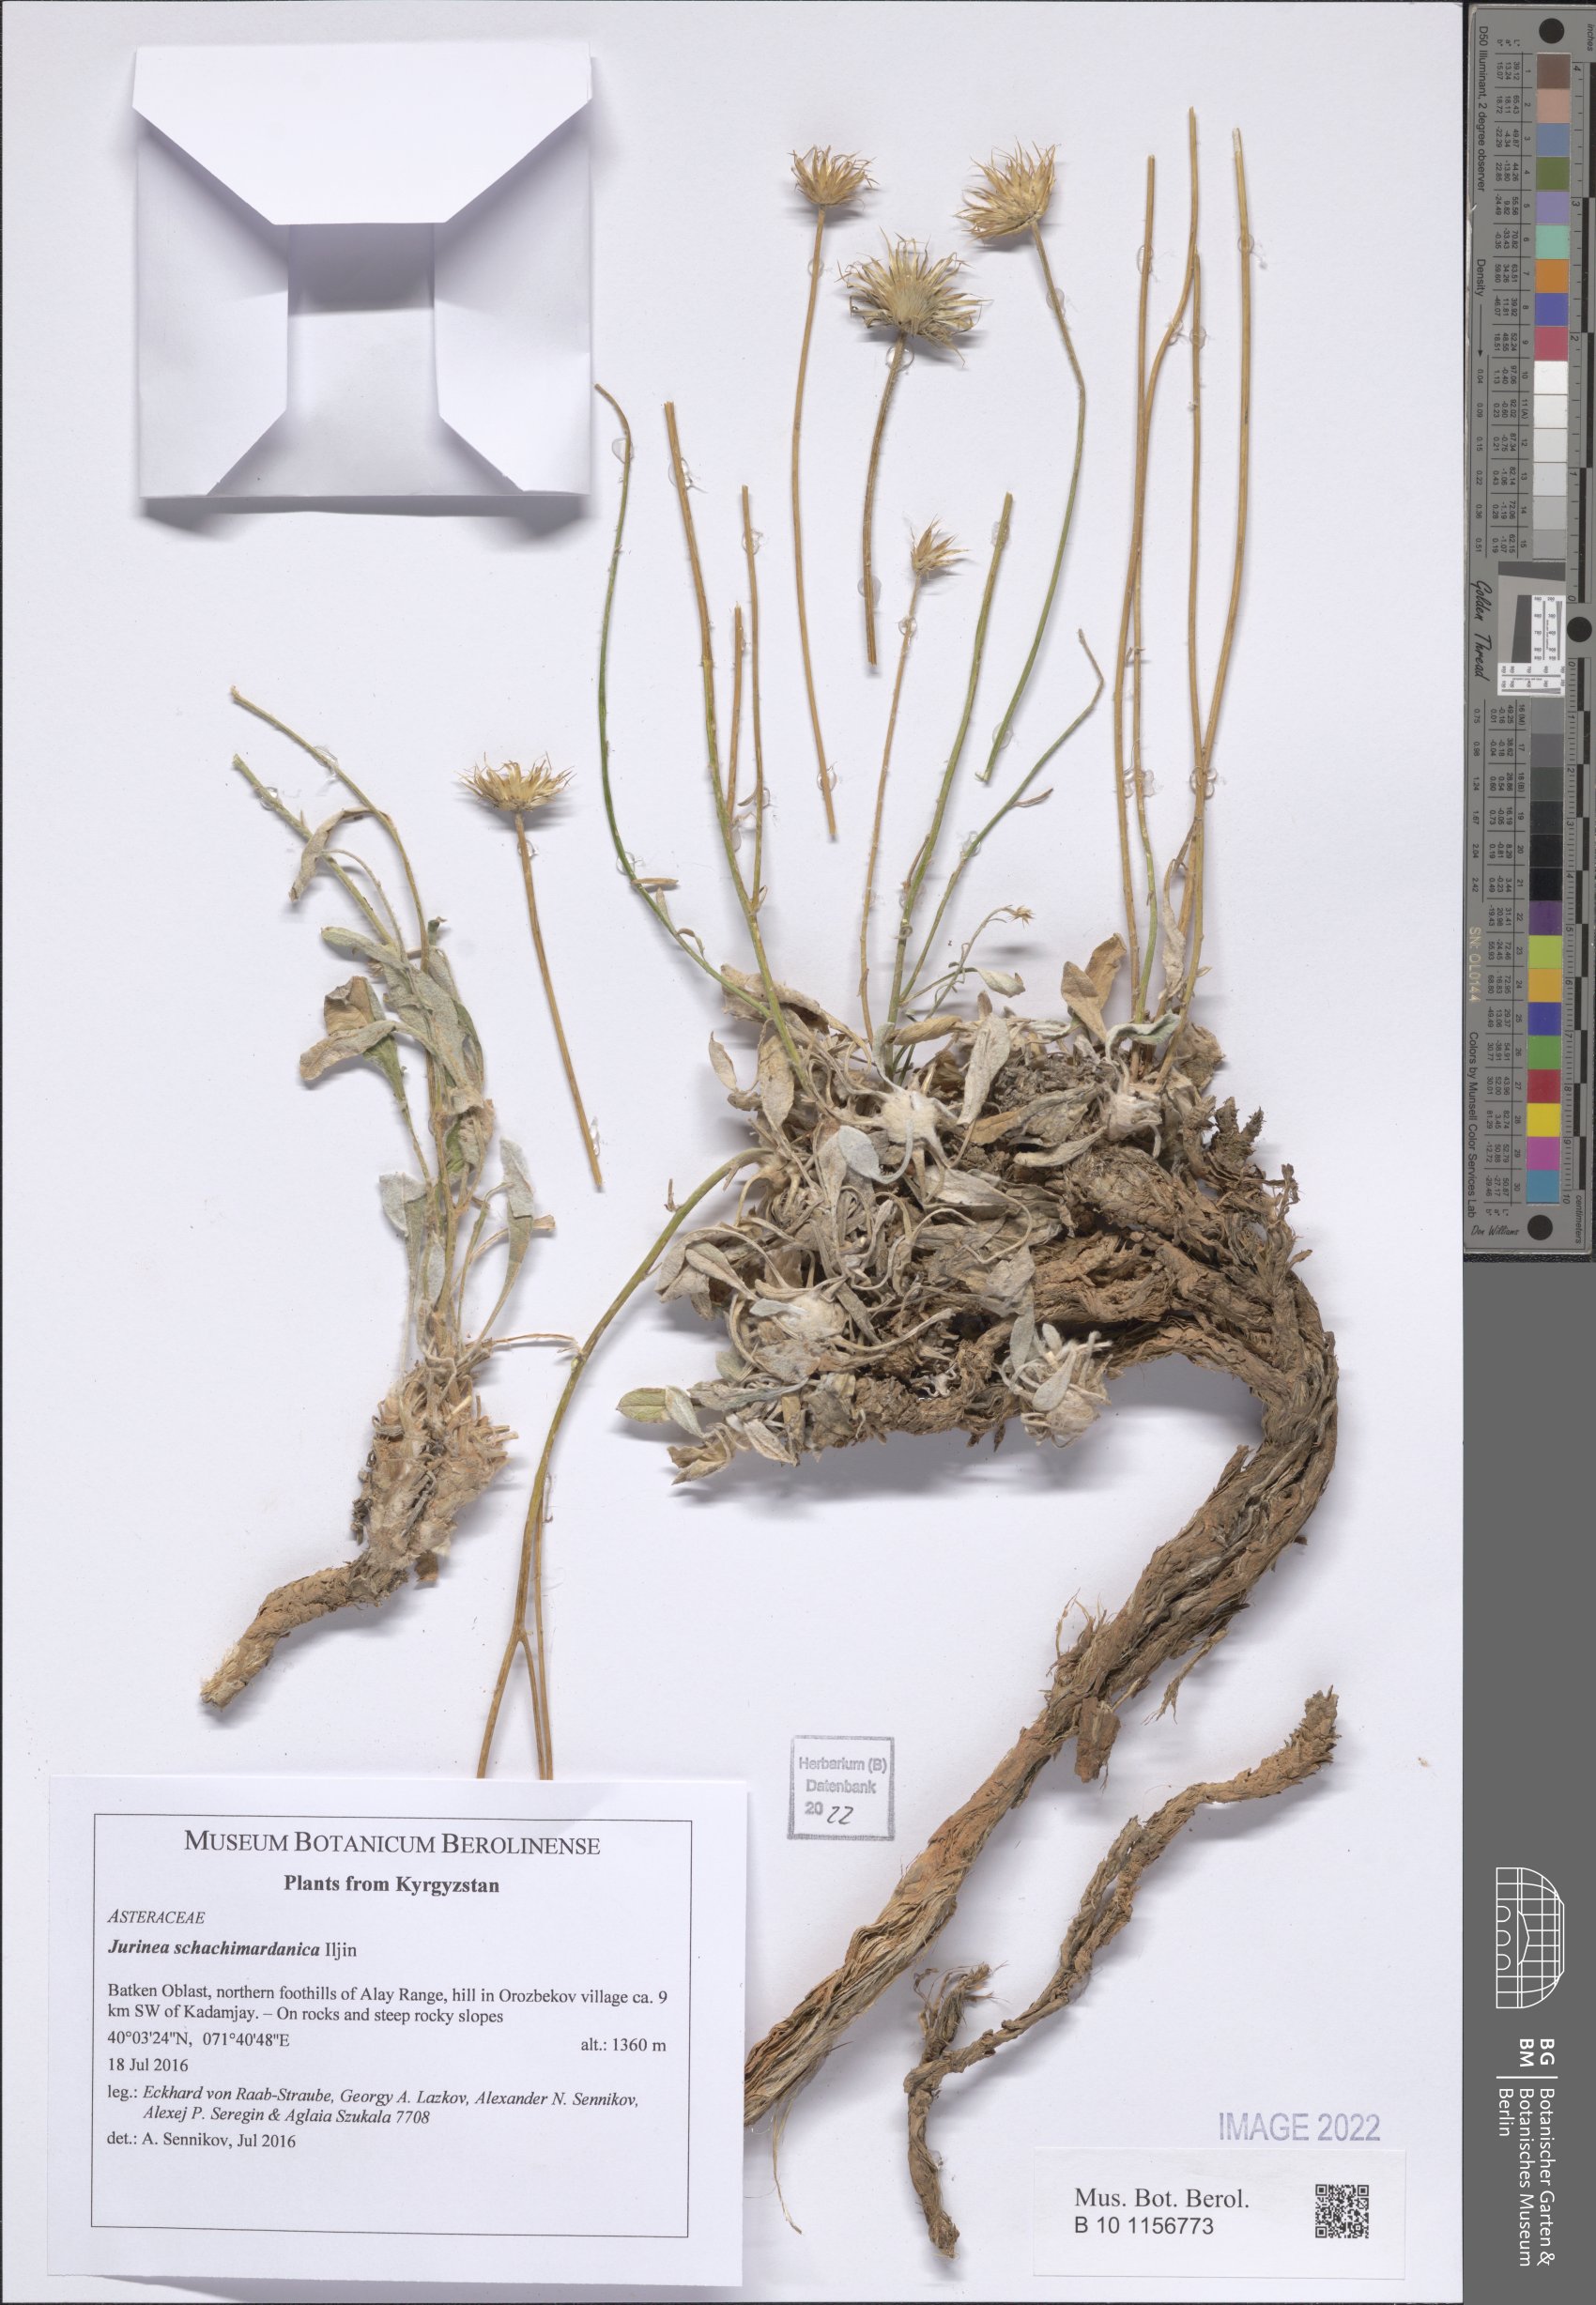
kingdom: Plantae
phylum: Tracheophyta
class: Magnoliopsida
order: Asterales
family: Asteraceae
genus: Jurinea
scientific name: Jurinea schachimardanica
